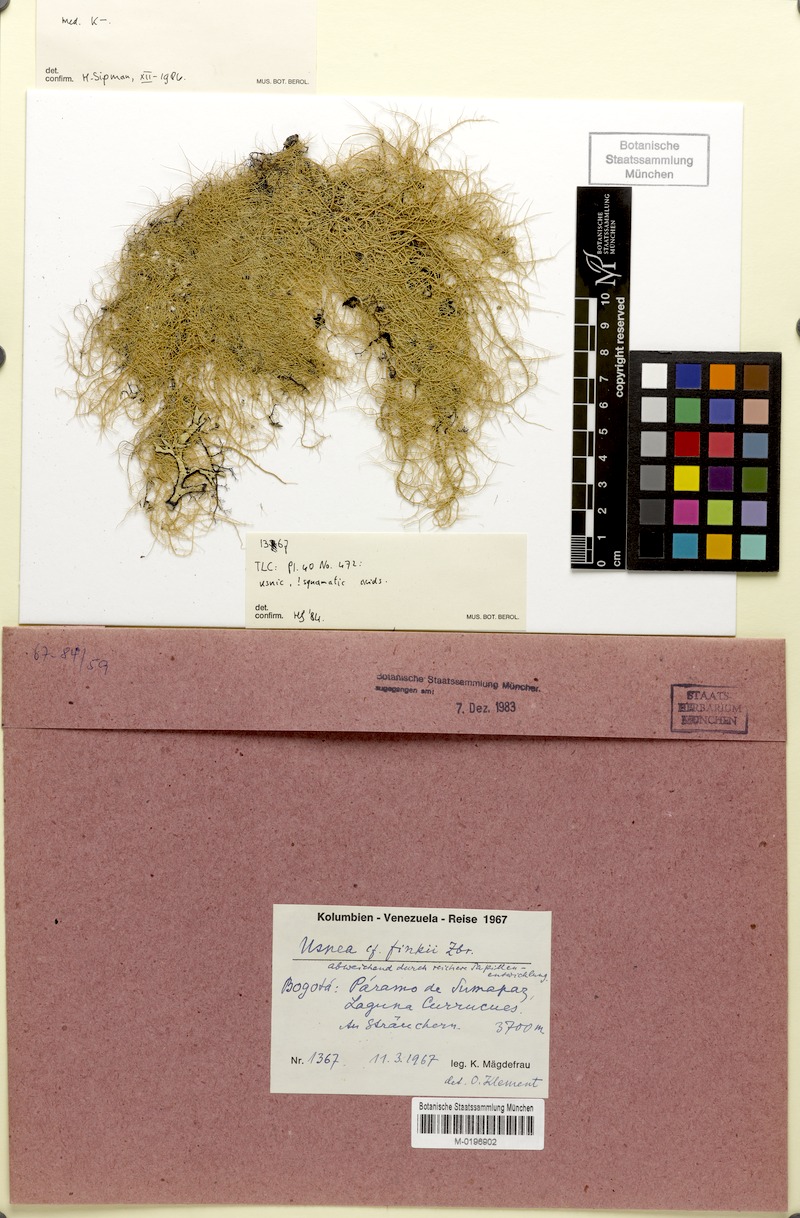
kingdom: Fungi
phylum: Ascomycota
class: Lecanoromycetes
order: Lecanorales
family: Parmeliaceae
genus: Usnea
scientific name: Usnea finkii
